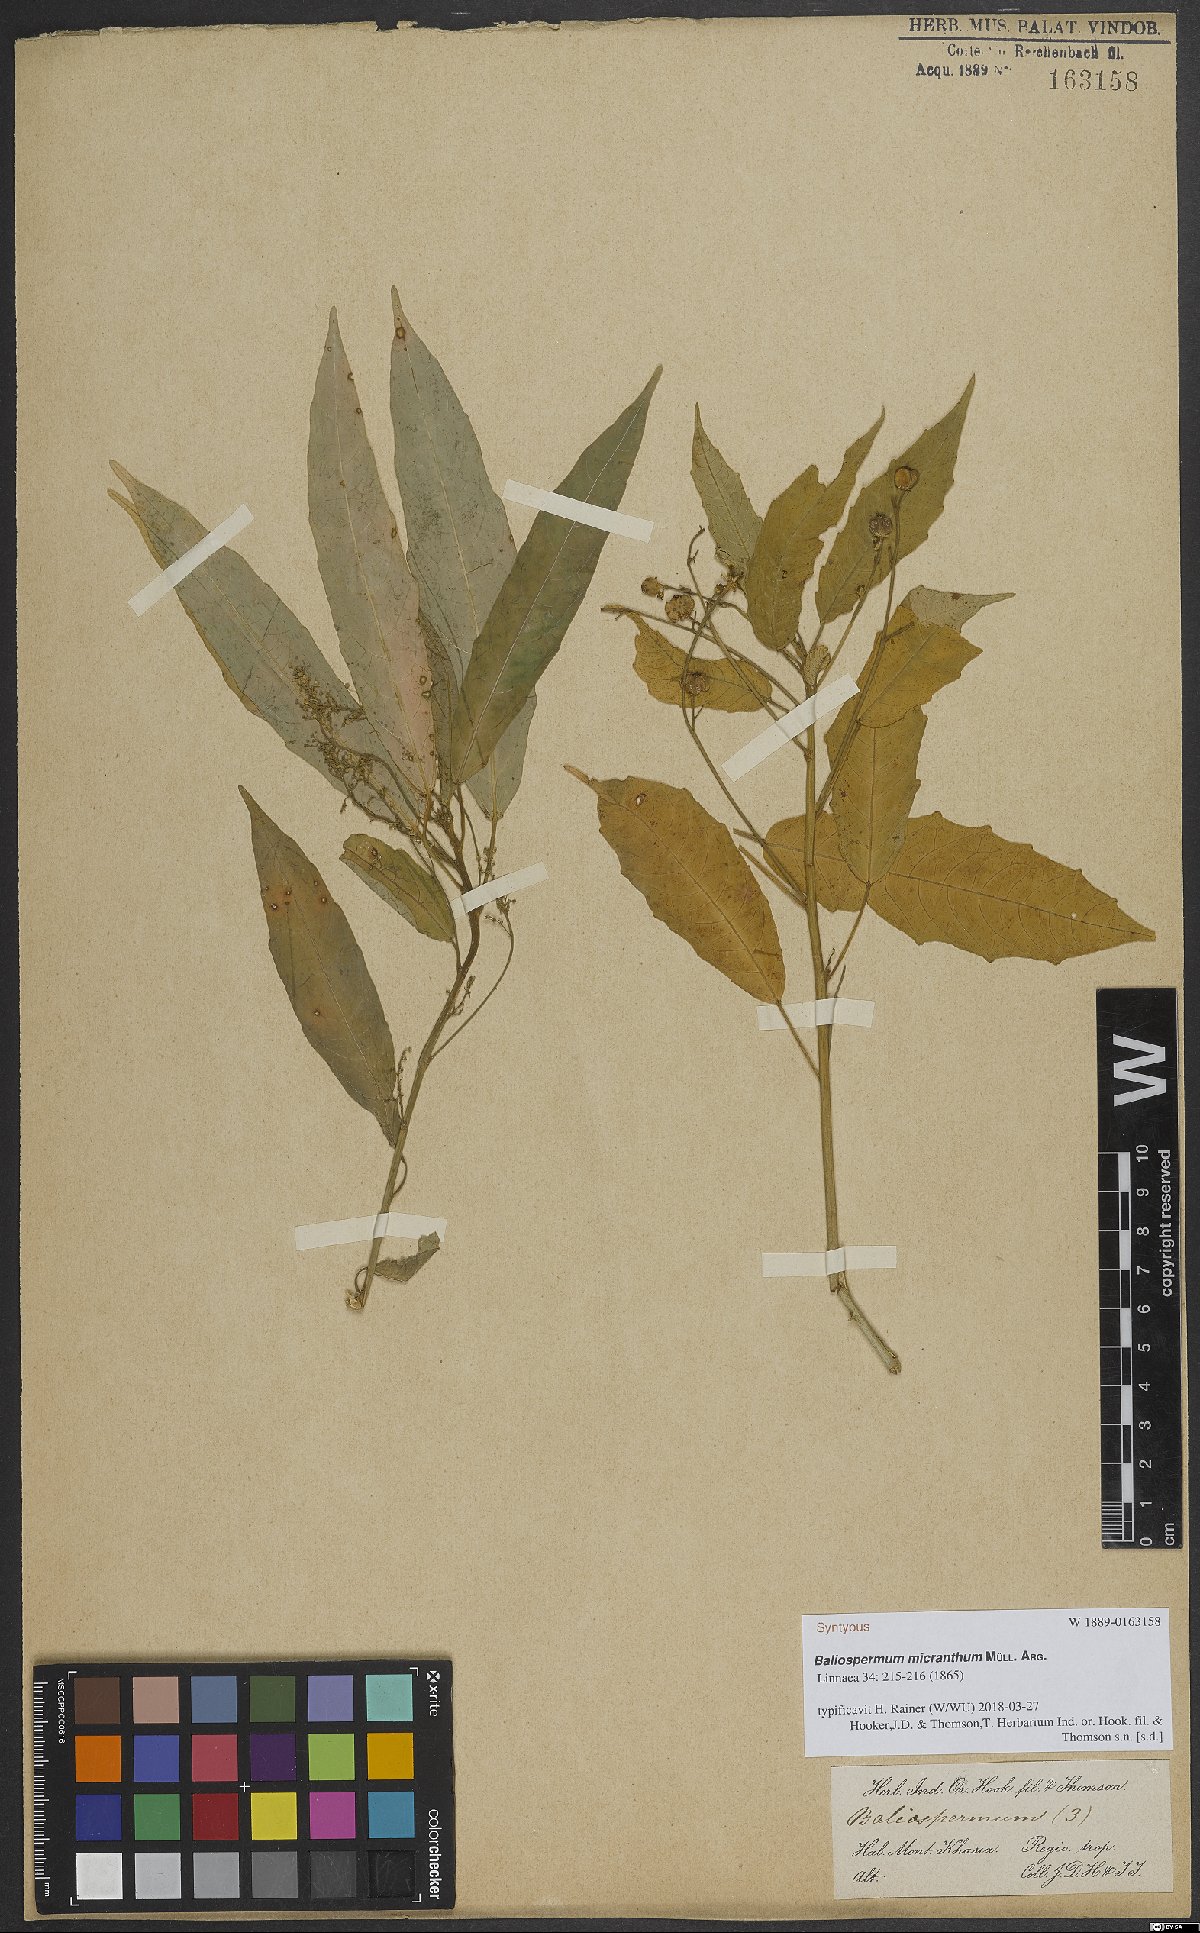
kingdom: Plantae
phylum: Tracheophyta
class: Magnoliopsida
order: Malpighiales
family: Euphorbiaceae
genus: Baliospermum
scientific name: Baliospermum calycinum
